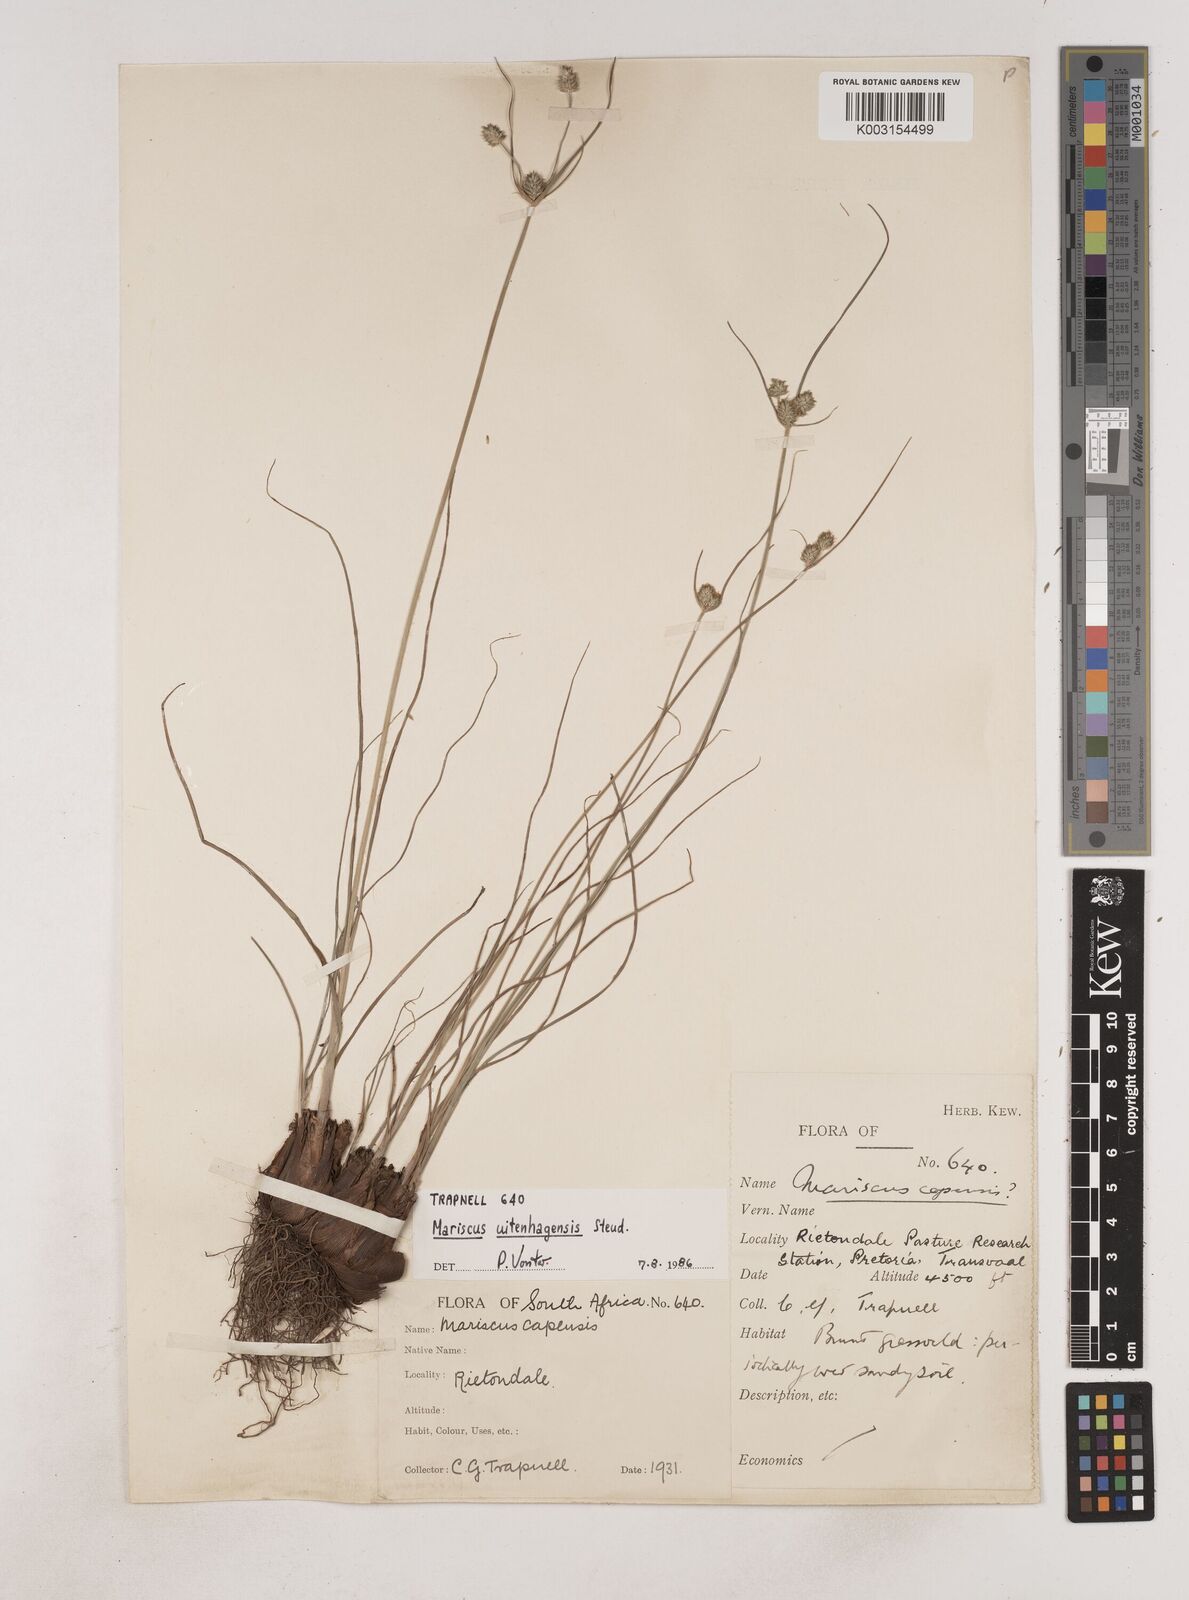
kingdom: Plantae
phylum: Tracheophyta
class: Liliopsida
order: Poales
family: Cyperaceae
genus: Cyperus
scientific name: Cyperus capensis
